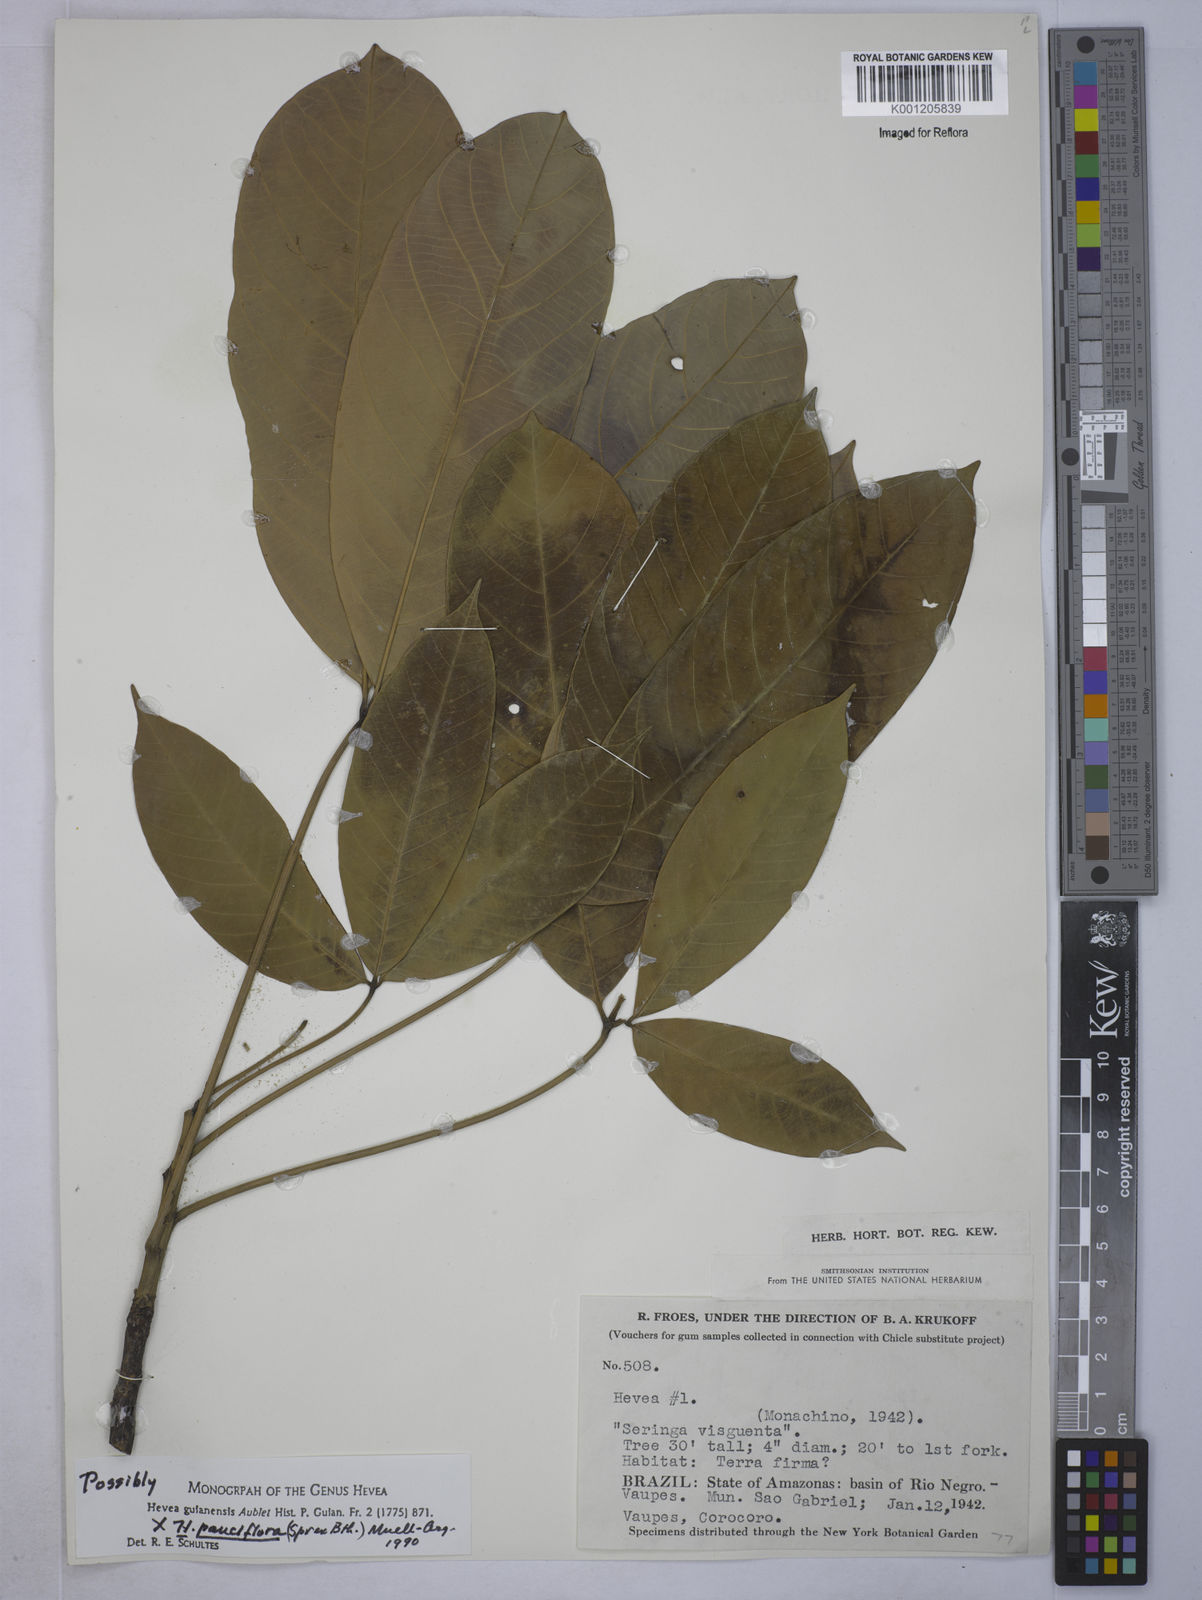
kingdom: Plantae
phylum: Tracheophyta
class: Magnoliopsida
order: Malpighiales
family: Euphorbiaceae
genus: Hevea
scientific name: Hevea
